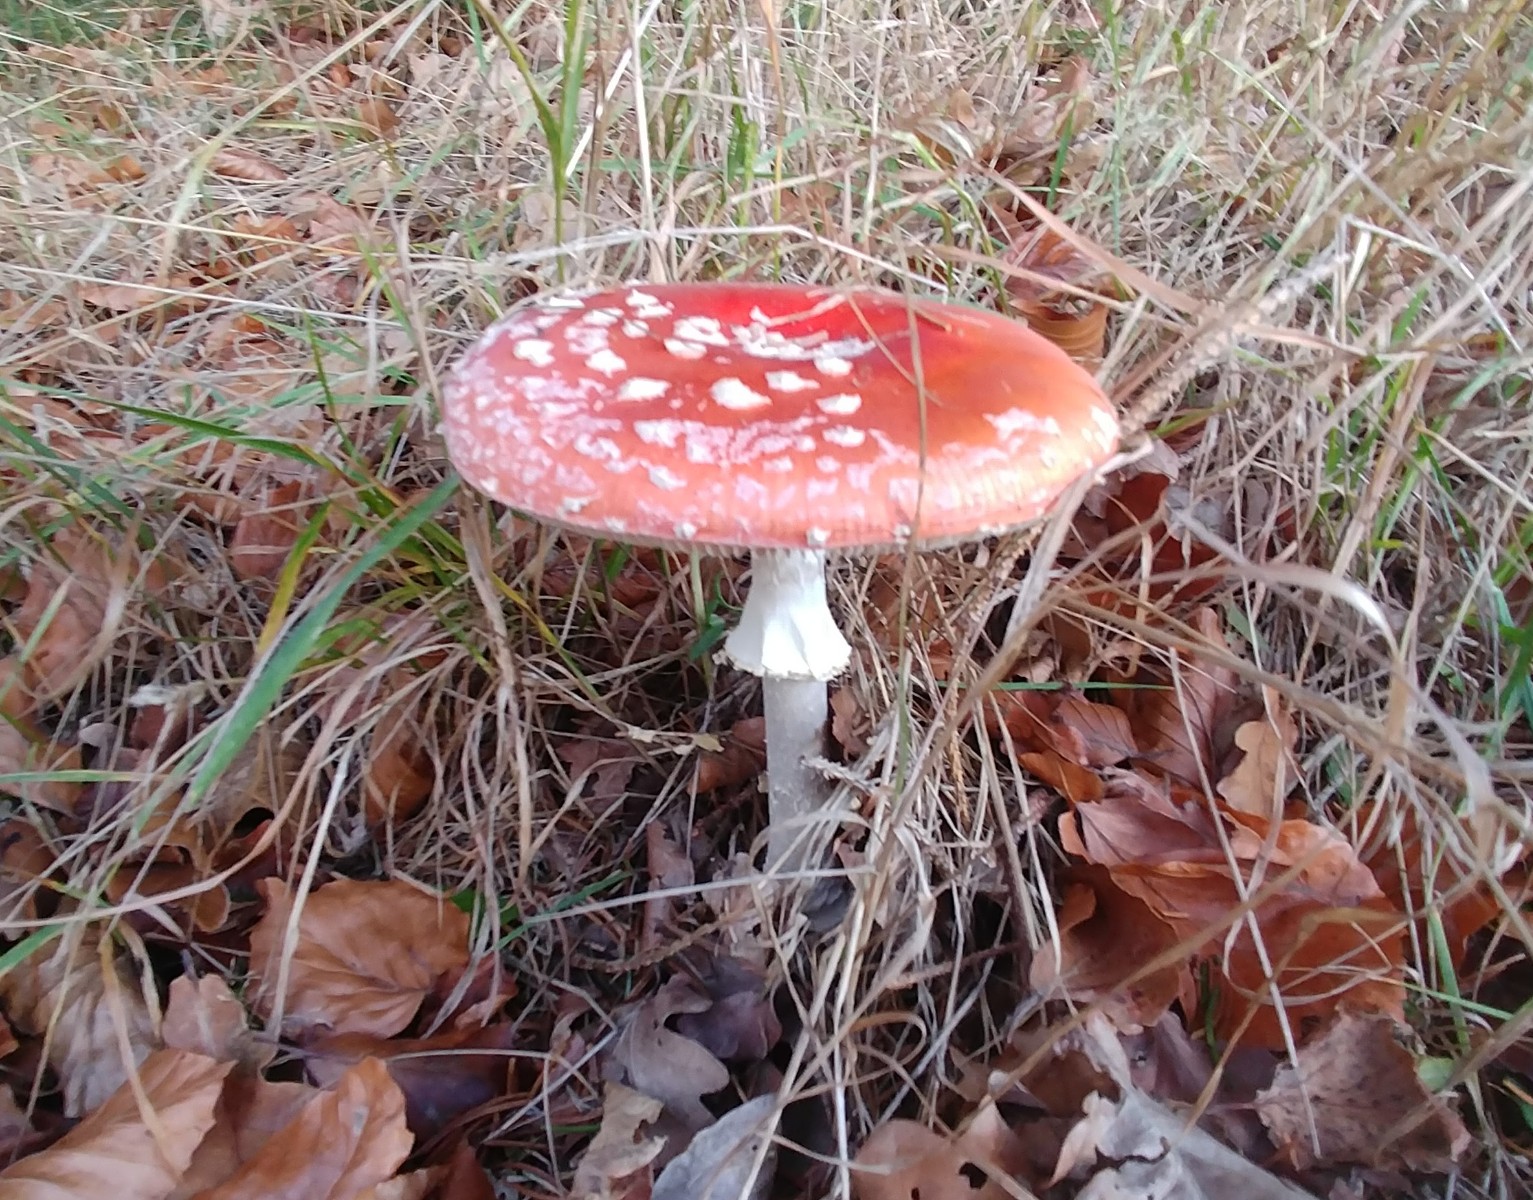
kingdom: Fungi
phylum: Basidiomycota
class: Agaricomycetes
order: Agaricales
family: Amanitaceae
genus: Amanita
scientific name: Amanita muscaria
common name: rød fluesvamp
